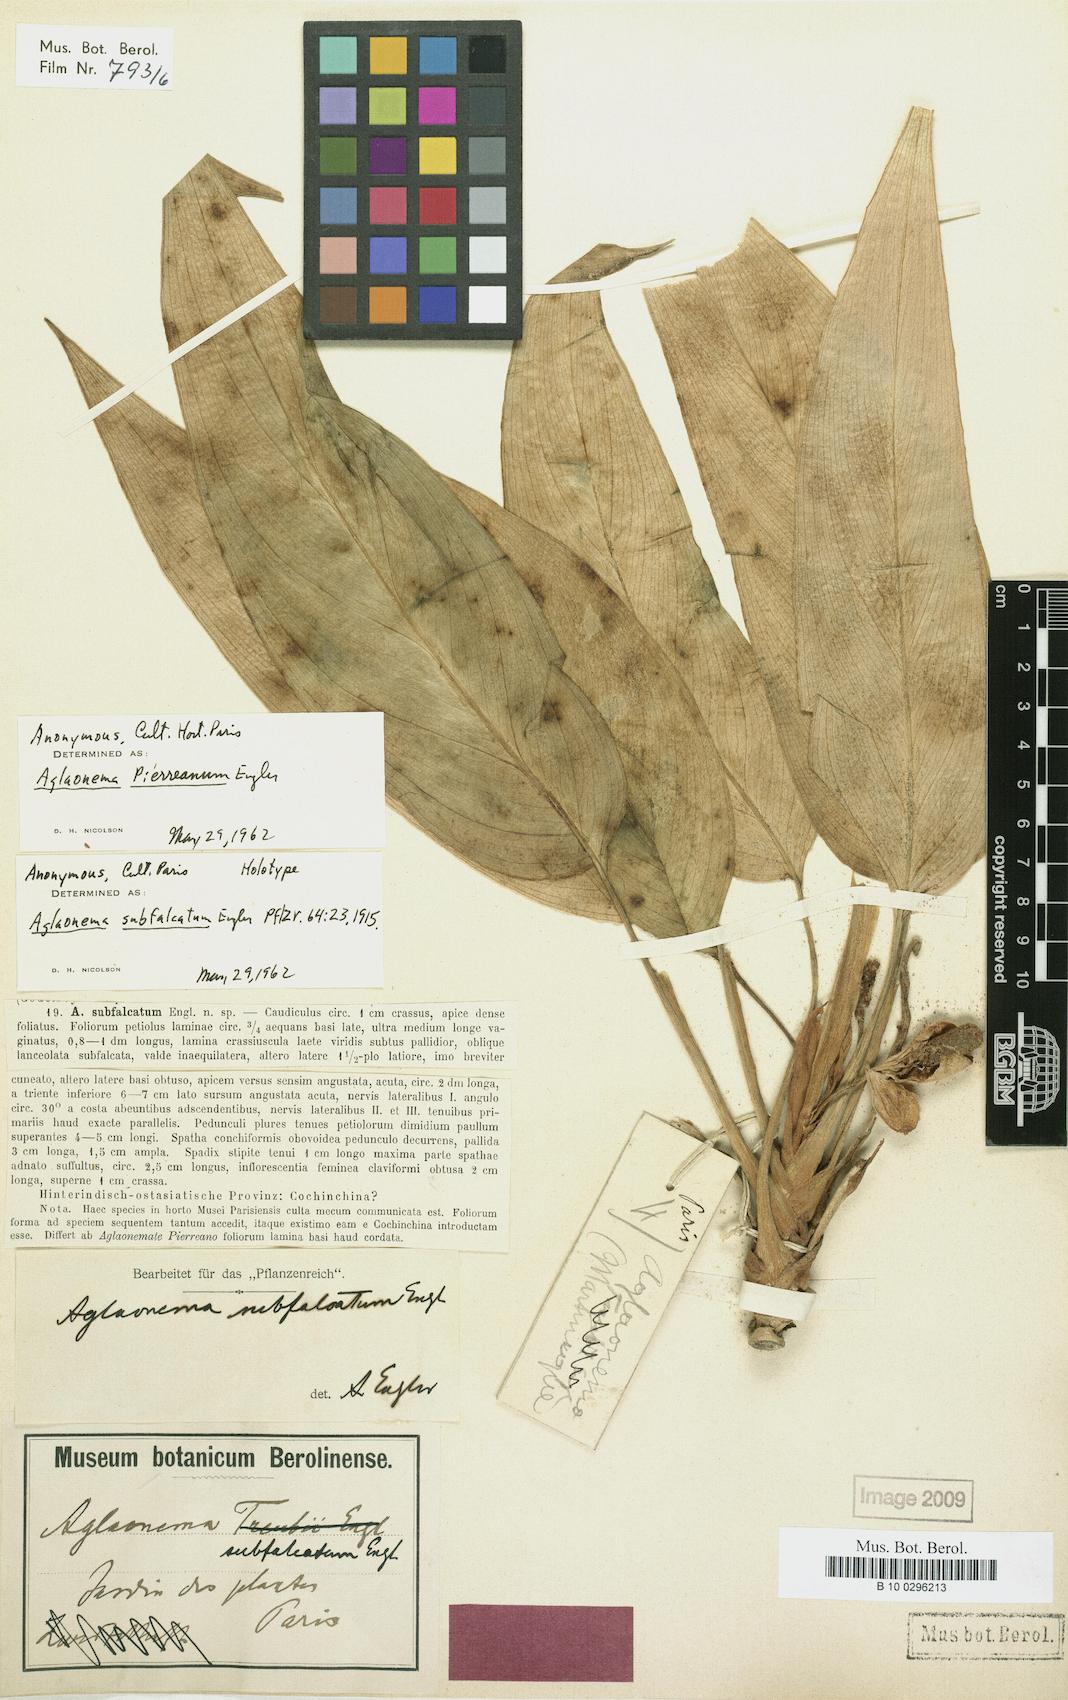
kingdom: Plantae
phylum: Tracheophyta
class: Liliopsida
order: Alismatales
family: Araceae
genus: Aglaonema
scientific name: Aglaonema simplex
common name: Malayan-sword
